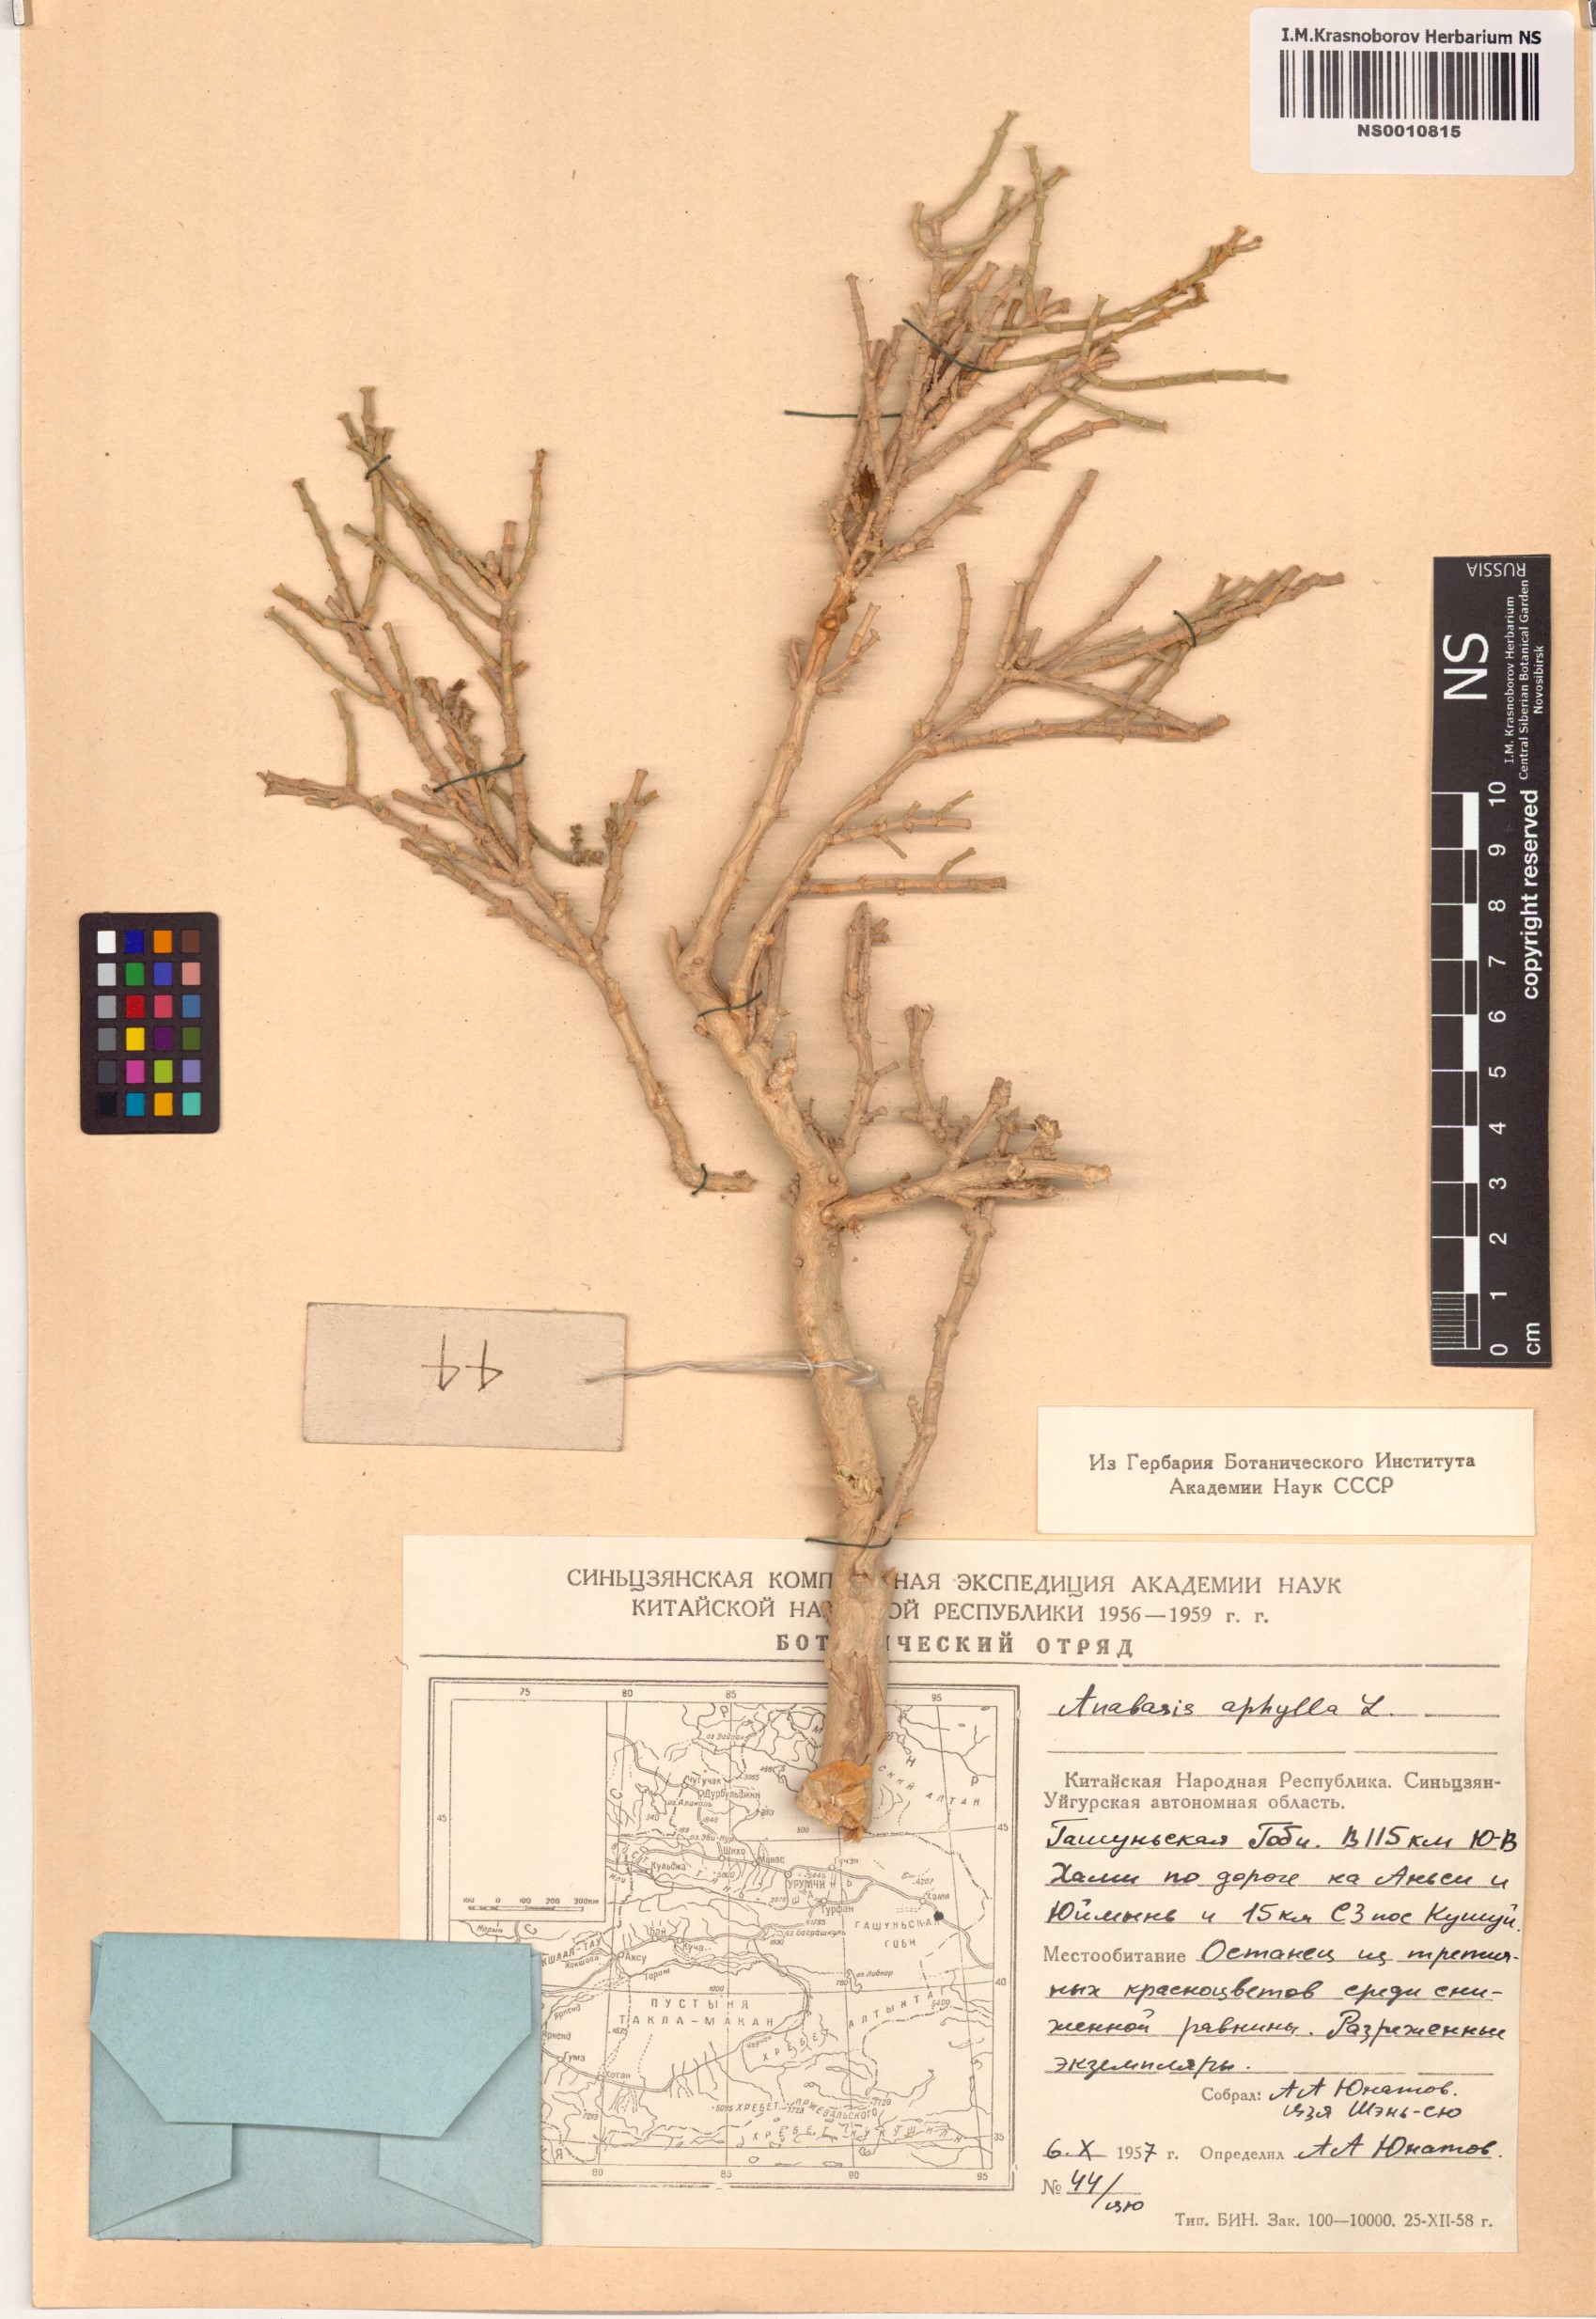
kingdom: Plantae
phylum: Tracheophyta
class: Magnoliopsida
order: Caryophyllales
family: Amaranthaceae
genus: Anabasis
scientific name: Anabasis aphylla
